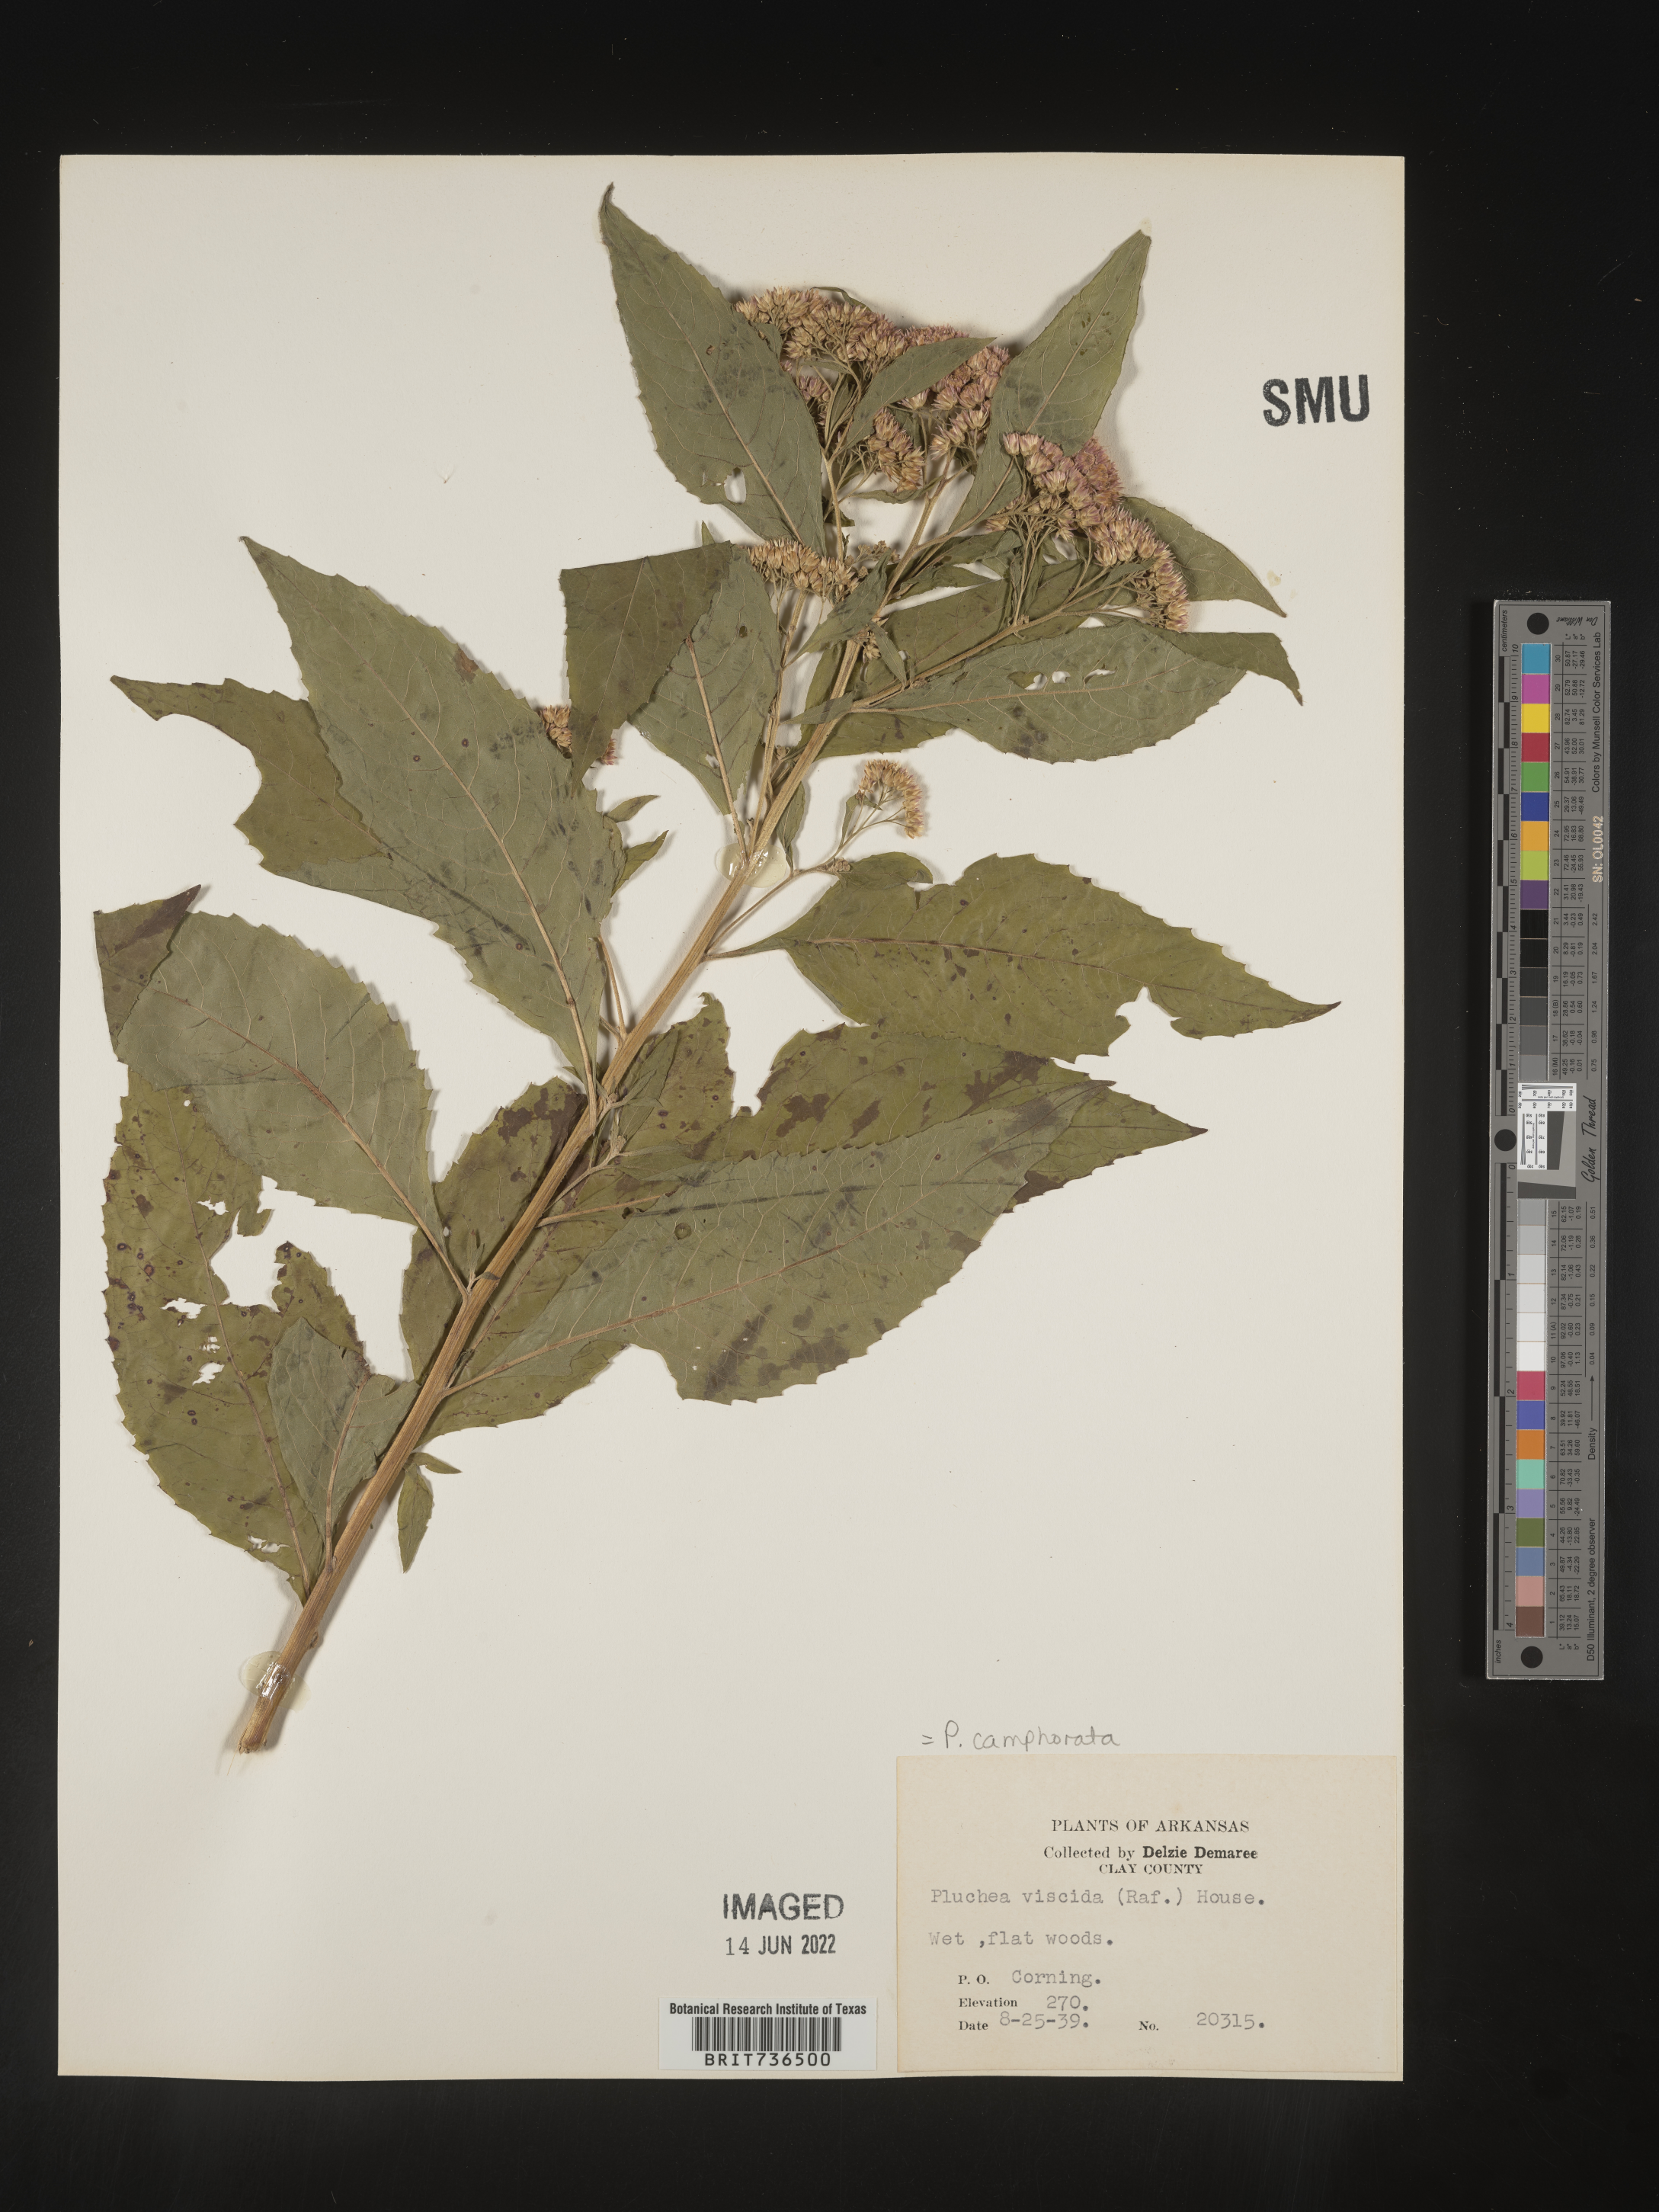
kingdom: Plantae
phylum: Tracheophyta
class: Magnoliopsida
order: Asterales
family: Asteraceae
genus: Pluchea
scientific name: Pluchea camphorata
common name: Camphor pluchea
